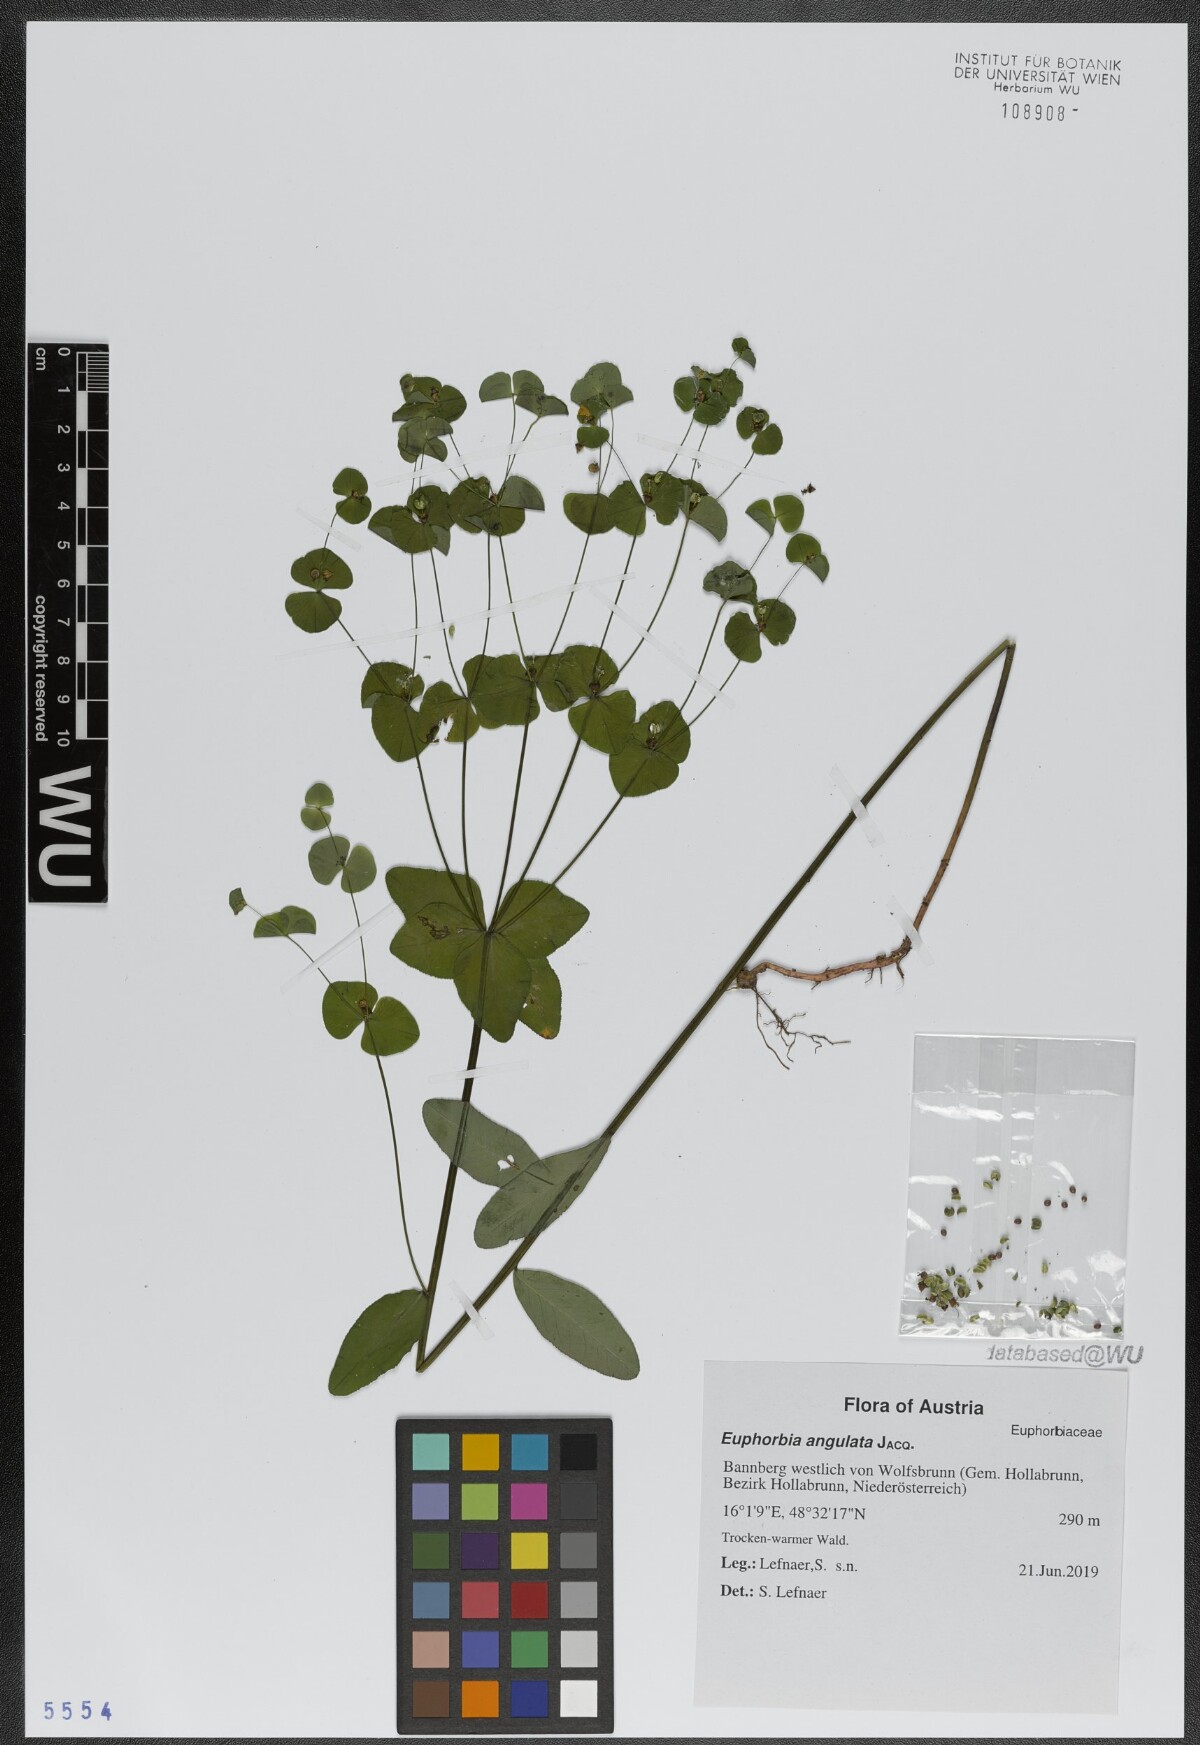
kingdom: Plantae
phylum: Tracheophyta
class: Magnoliopsida
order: Malpighiales
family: Euphorbiaceae
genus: Euphorbia
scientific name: Euphorbia angulata
